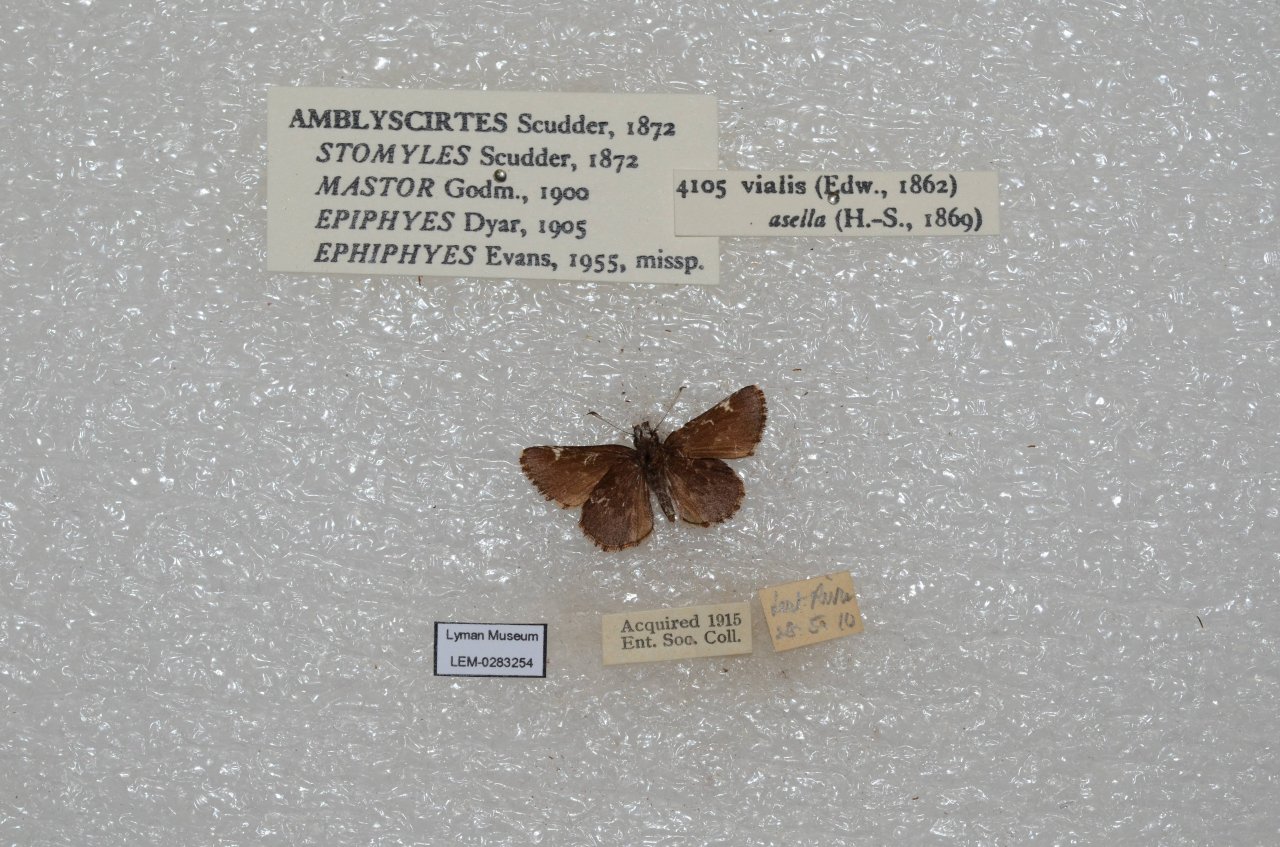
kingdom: Animalia
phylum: Arthropoda
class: Insecta
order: Lepidoptera
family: Hesperiidae
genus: Mastor
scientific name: Mastor vialis
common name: Common Roadside-Skipper
